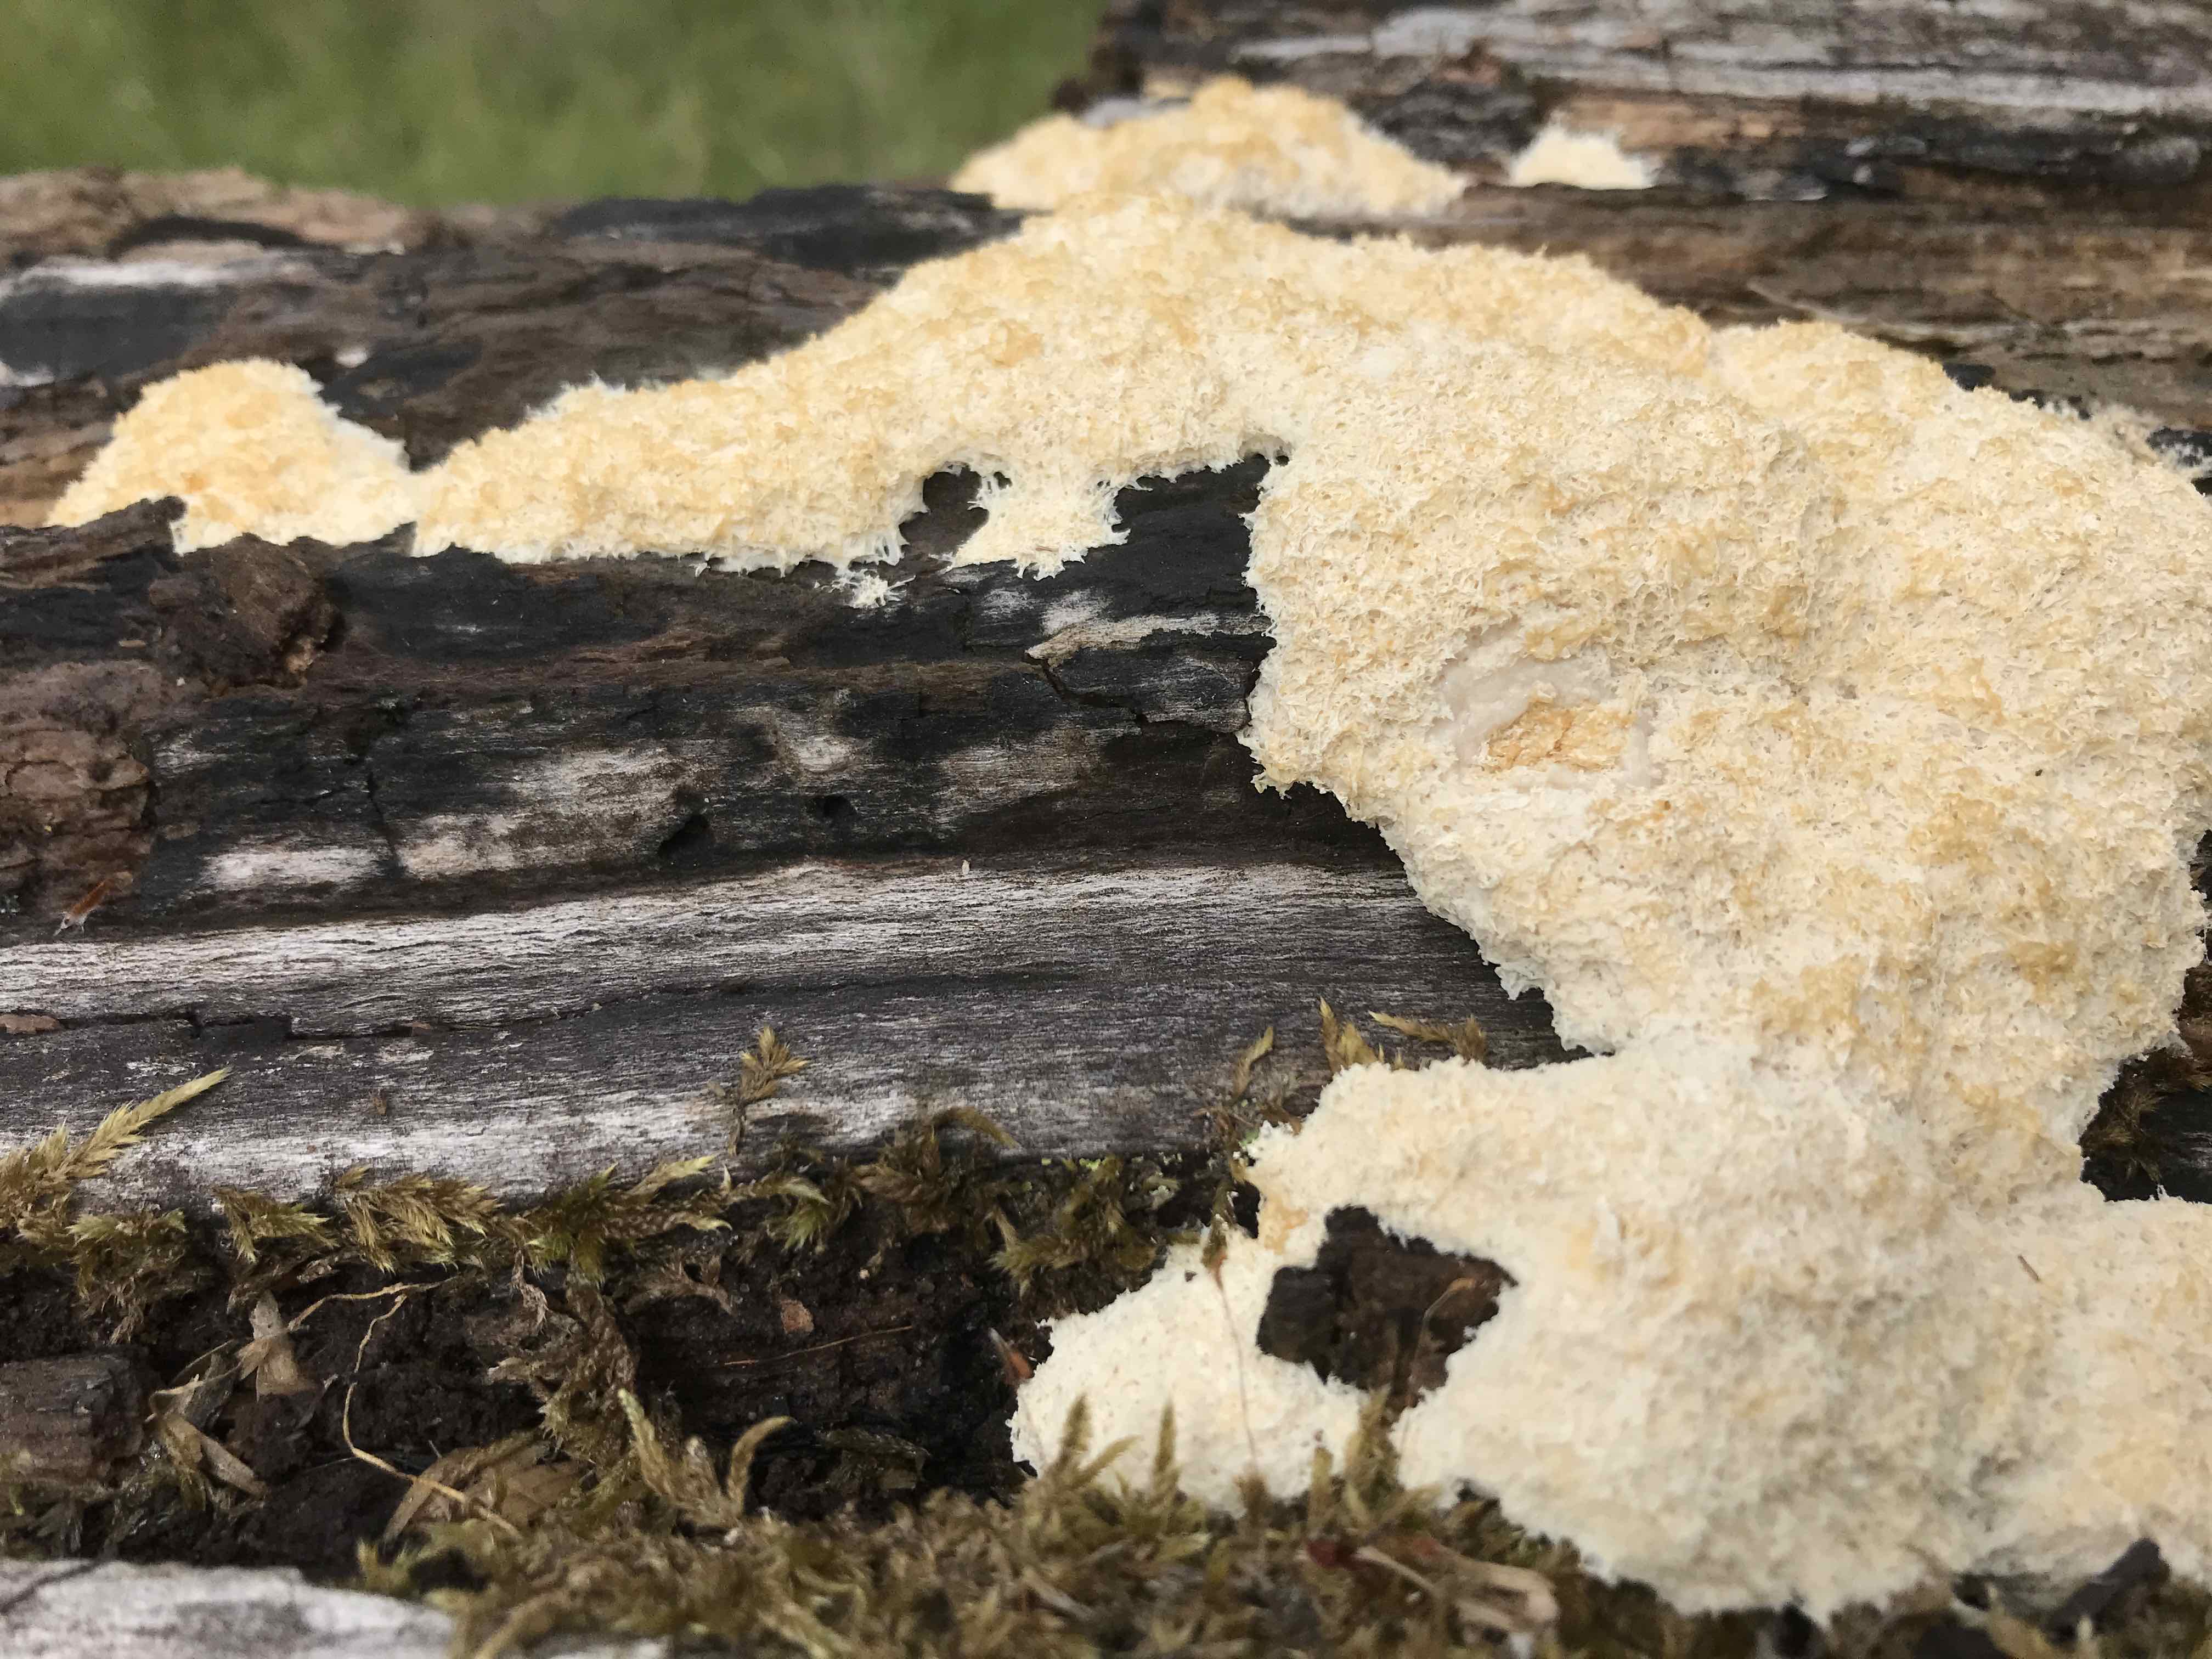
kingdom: Protozoa
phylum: Mycetozoa
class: Myxomycetes
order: Physarales
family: Physaraceae
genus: Fuligo
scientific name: Fuligo
